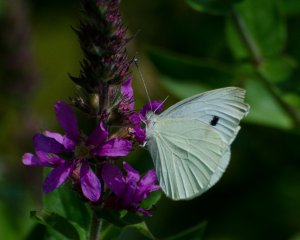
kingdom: Animalia
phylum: Arthropoda
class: Insecta
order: Lepidoptera
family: Pieridae
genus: Pieris
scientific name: Pieris rapae
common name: Cabbage White
